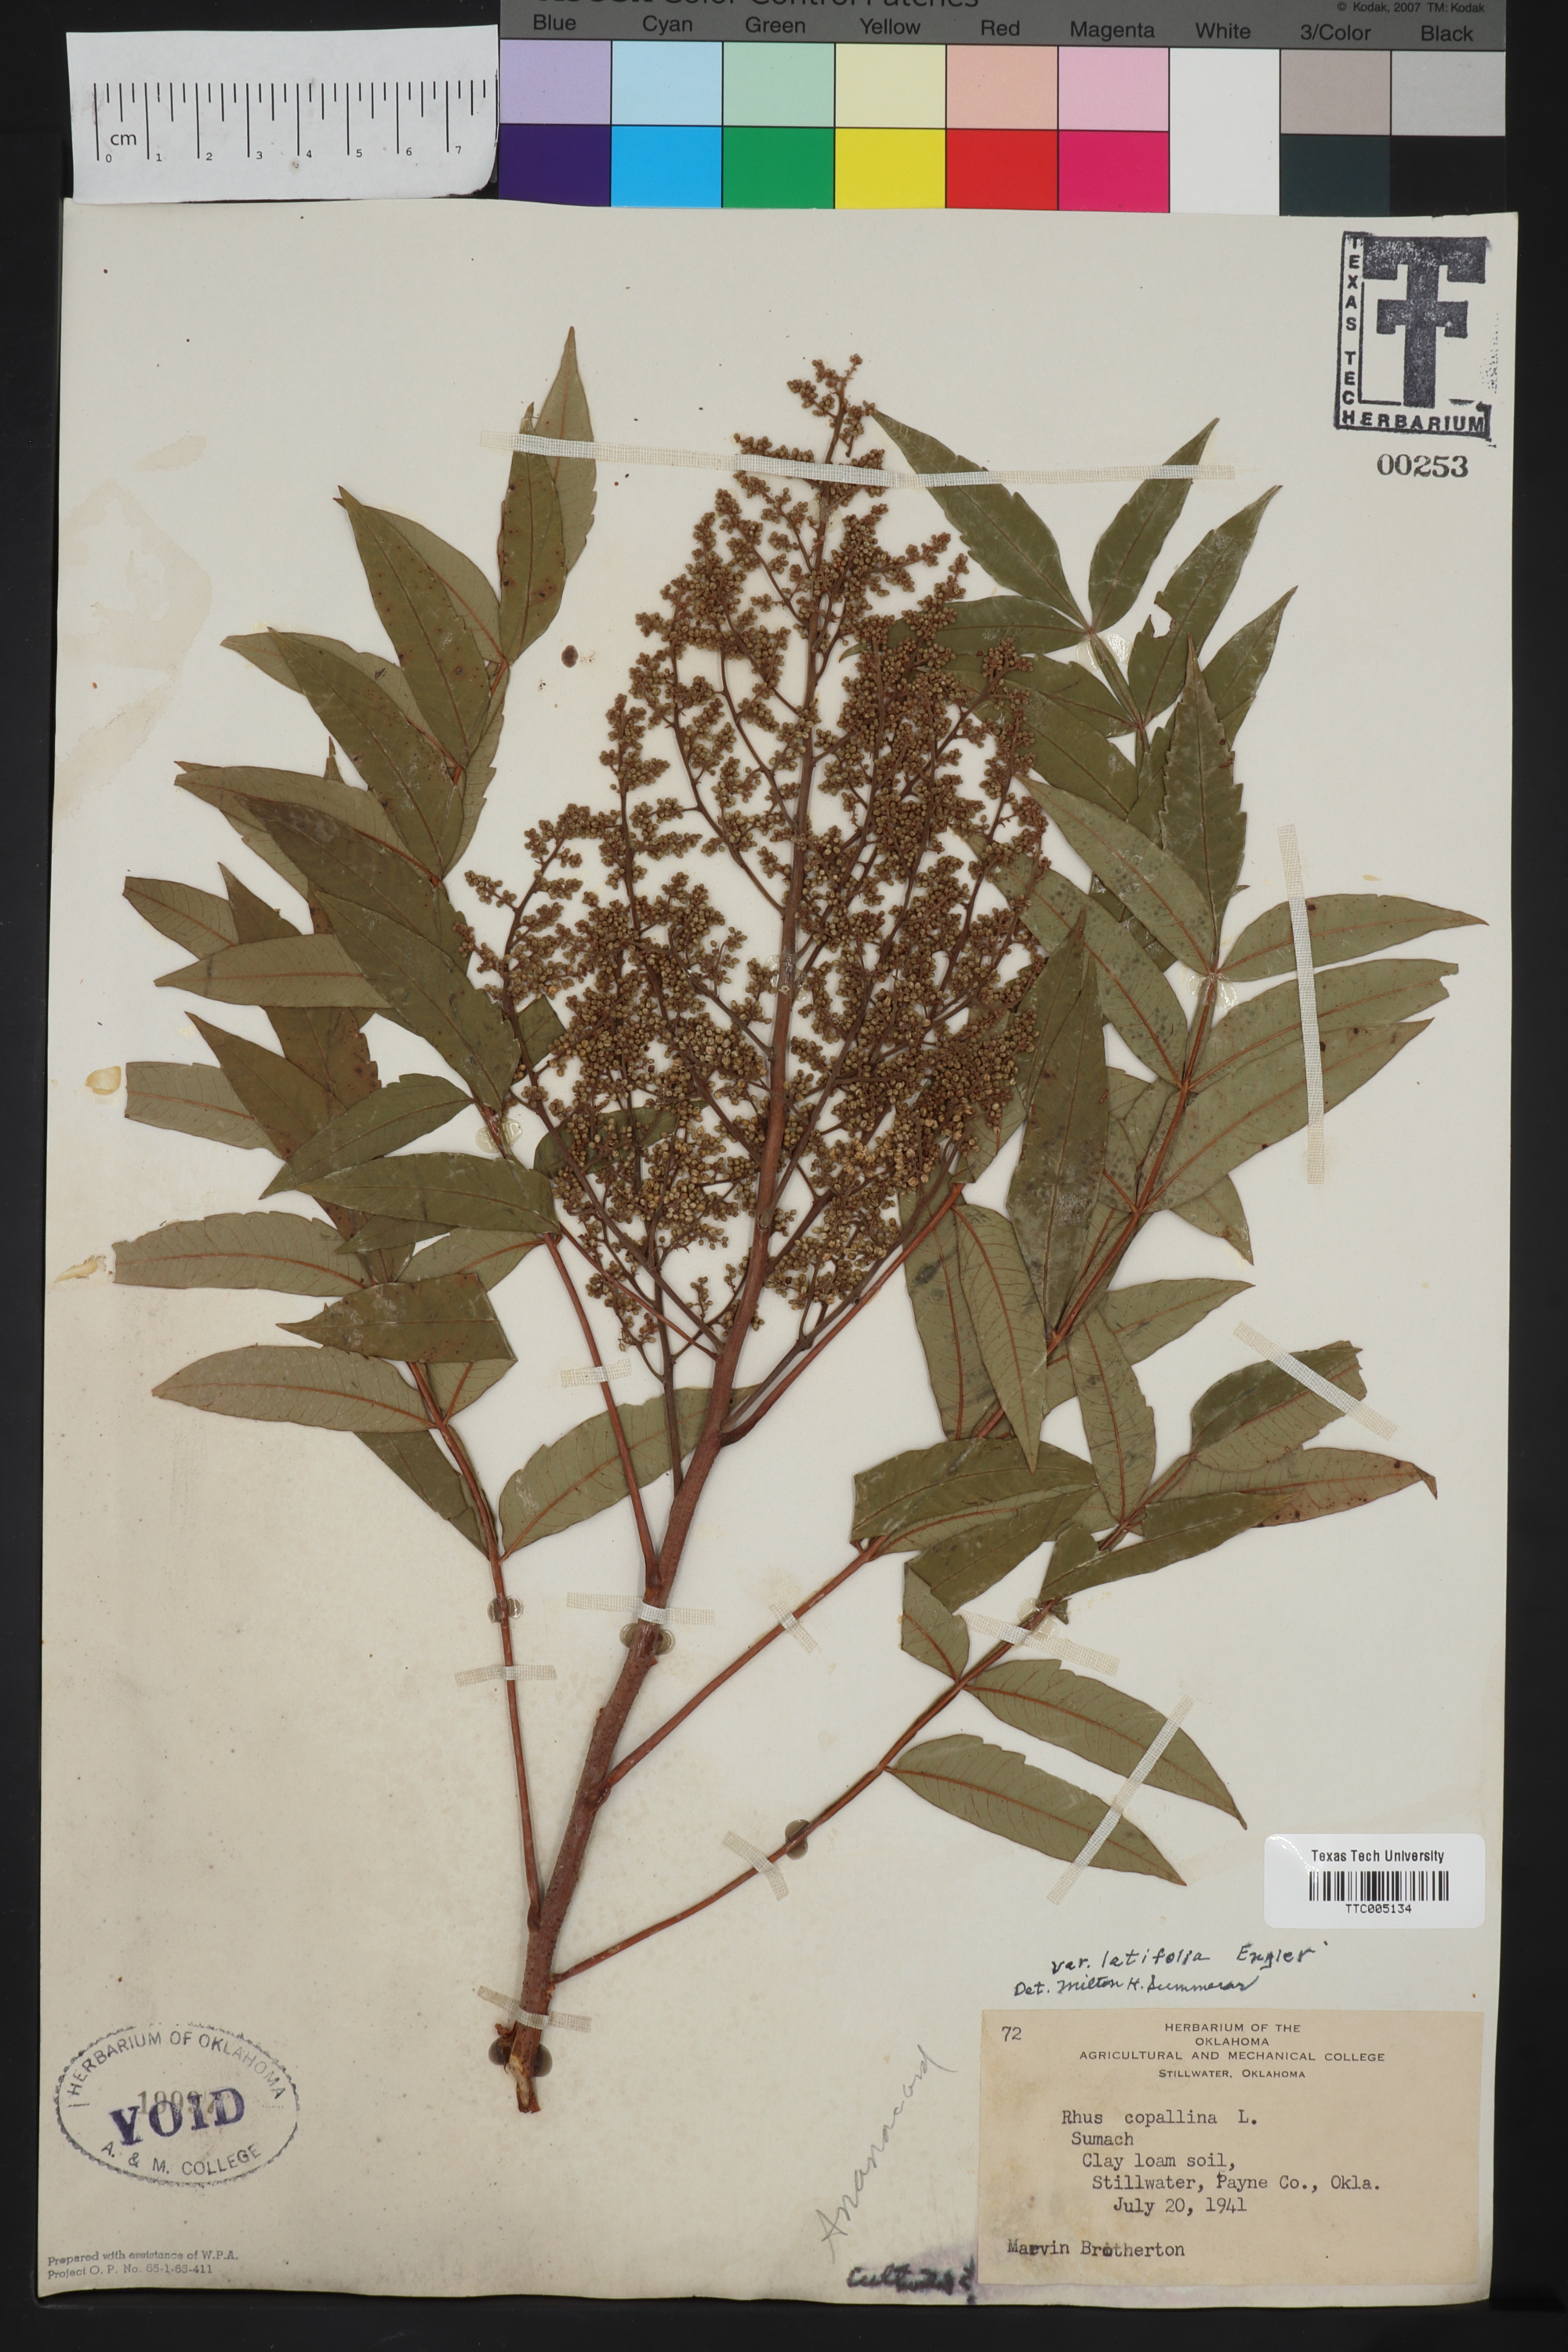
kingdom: Plantae
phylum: Tracheophyta
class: Magnoliopsida
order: Sapindales
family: Anacardiaceae
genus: Rhus
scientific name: Rhus copallina
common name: Shining sumac
